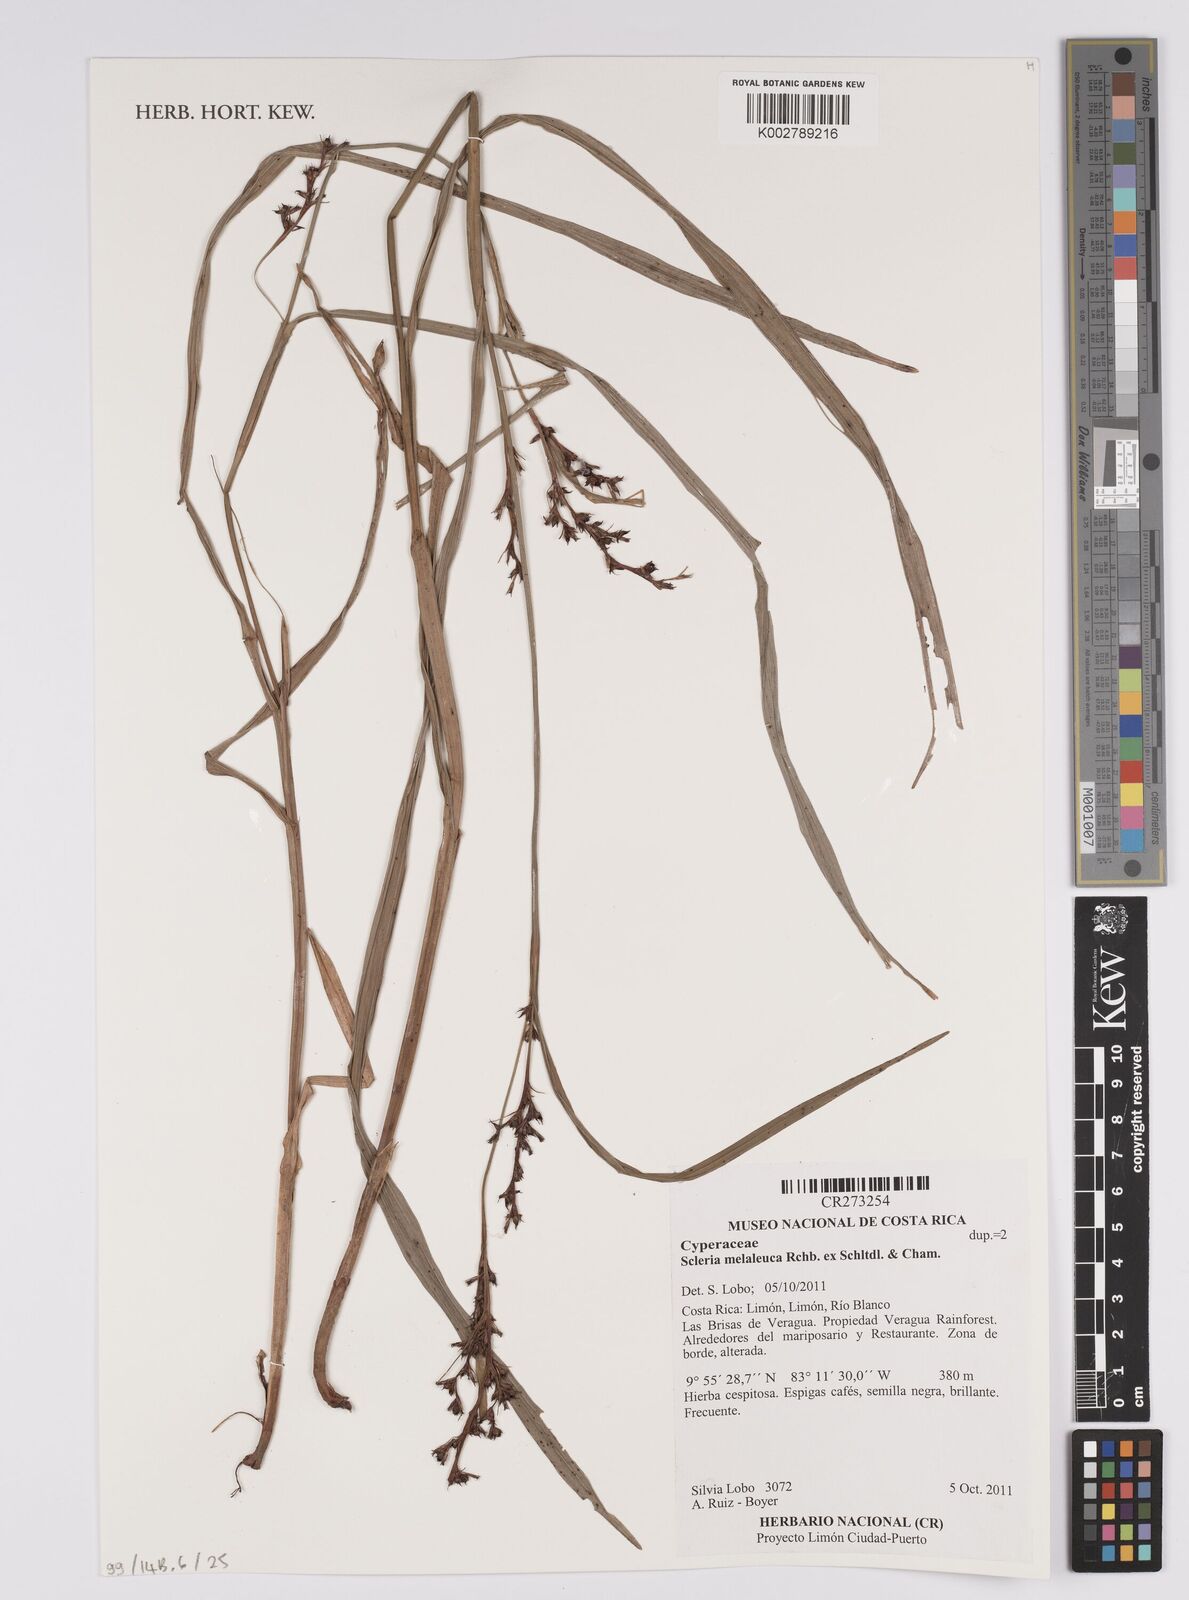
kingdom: Plantae
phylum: Tracheophyta
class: Liliopsida
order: Poales
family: Cyperaceae
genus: Scleria
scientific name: Scleria gaertneri
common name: Cortadera blanca
